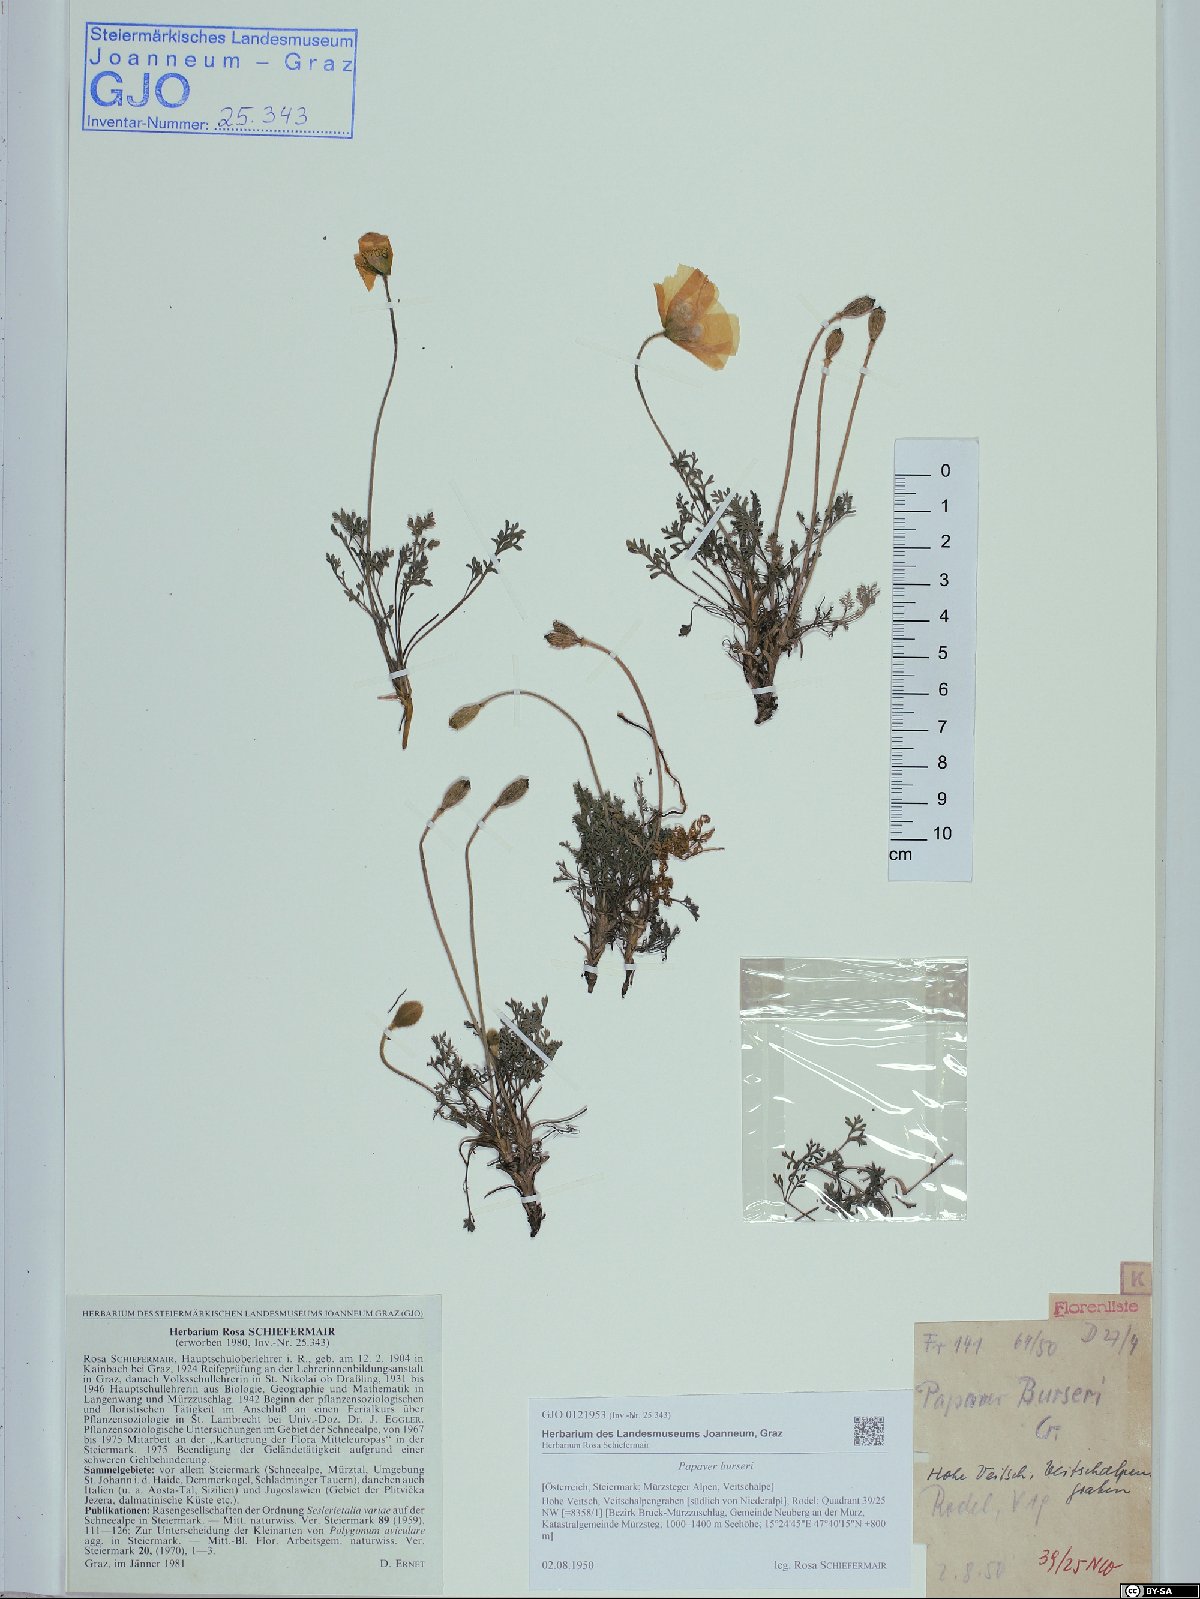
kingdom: Plantae
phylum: Tracheophyta
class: Magnoliopsida
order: Ranunculales
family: Papaveraceae
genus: Papaver
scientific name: Papaver alpinum
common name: Austrian poppy
